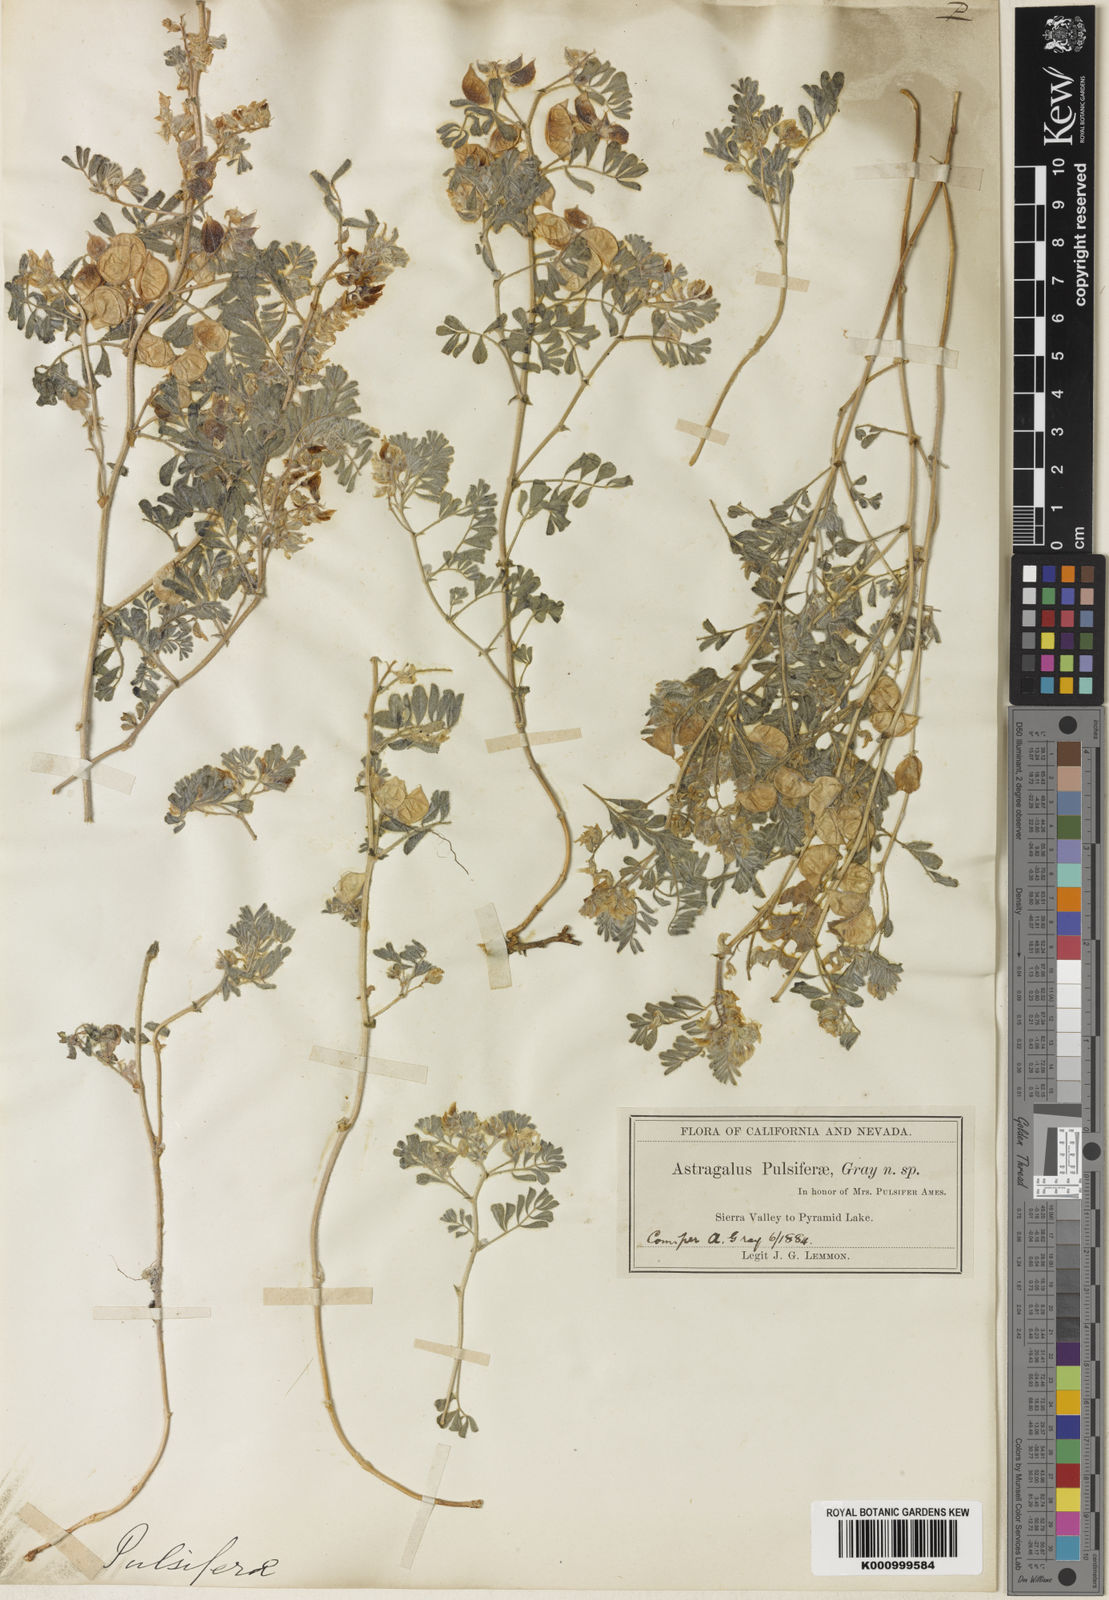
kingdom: Plantae
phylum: Tracheophyta
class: Magnoliopsida
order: Fabales
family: Fabaceae
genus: Astragalus
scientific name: Astragalus pulsiferae
